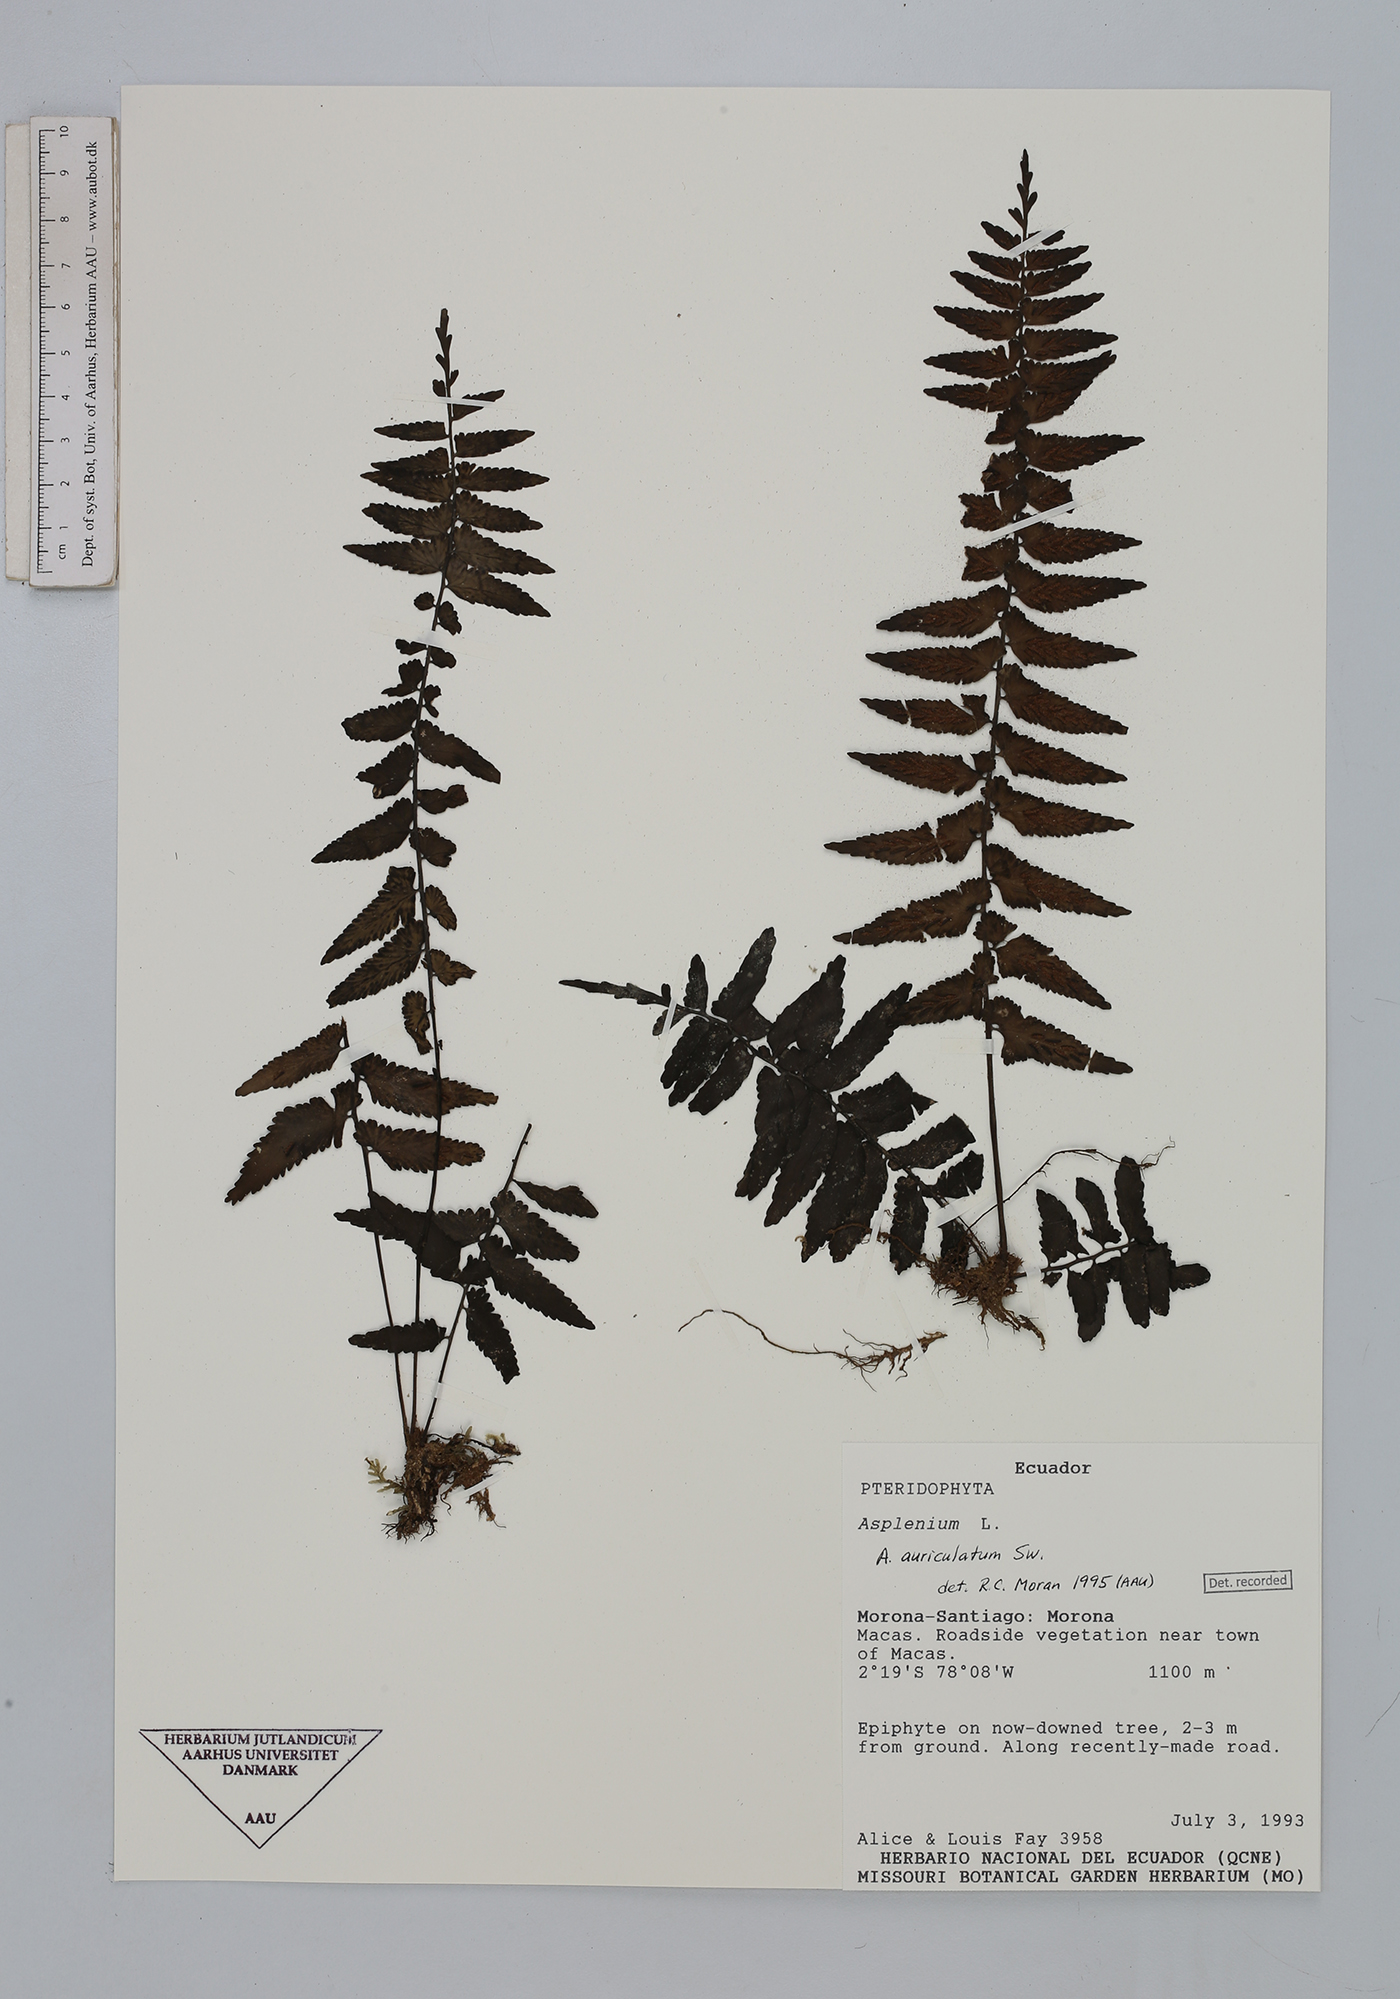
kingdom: Plantae
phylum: Tracheophyta
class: Polypodiopsida
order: Polypodiales
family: Aspleniaceae
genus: Asplenium
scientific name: Asplenium auriculatum
